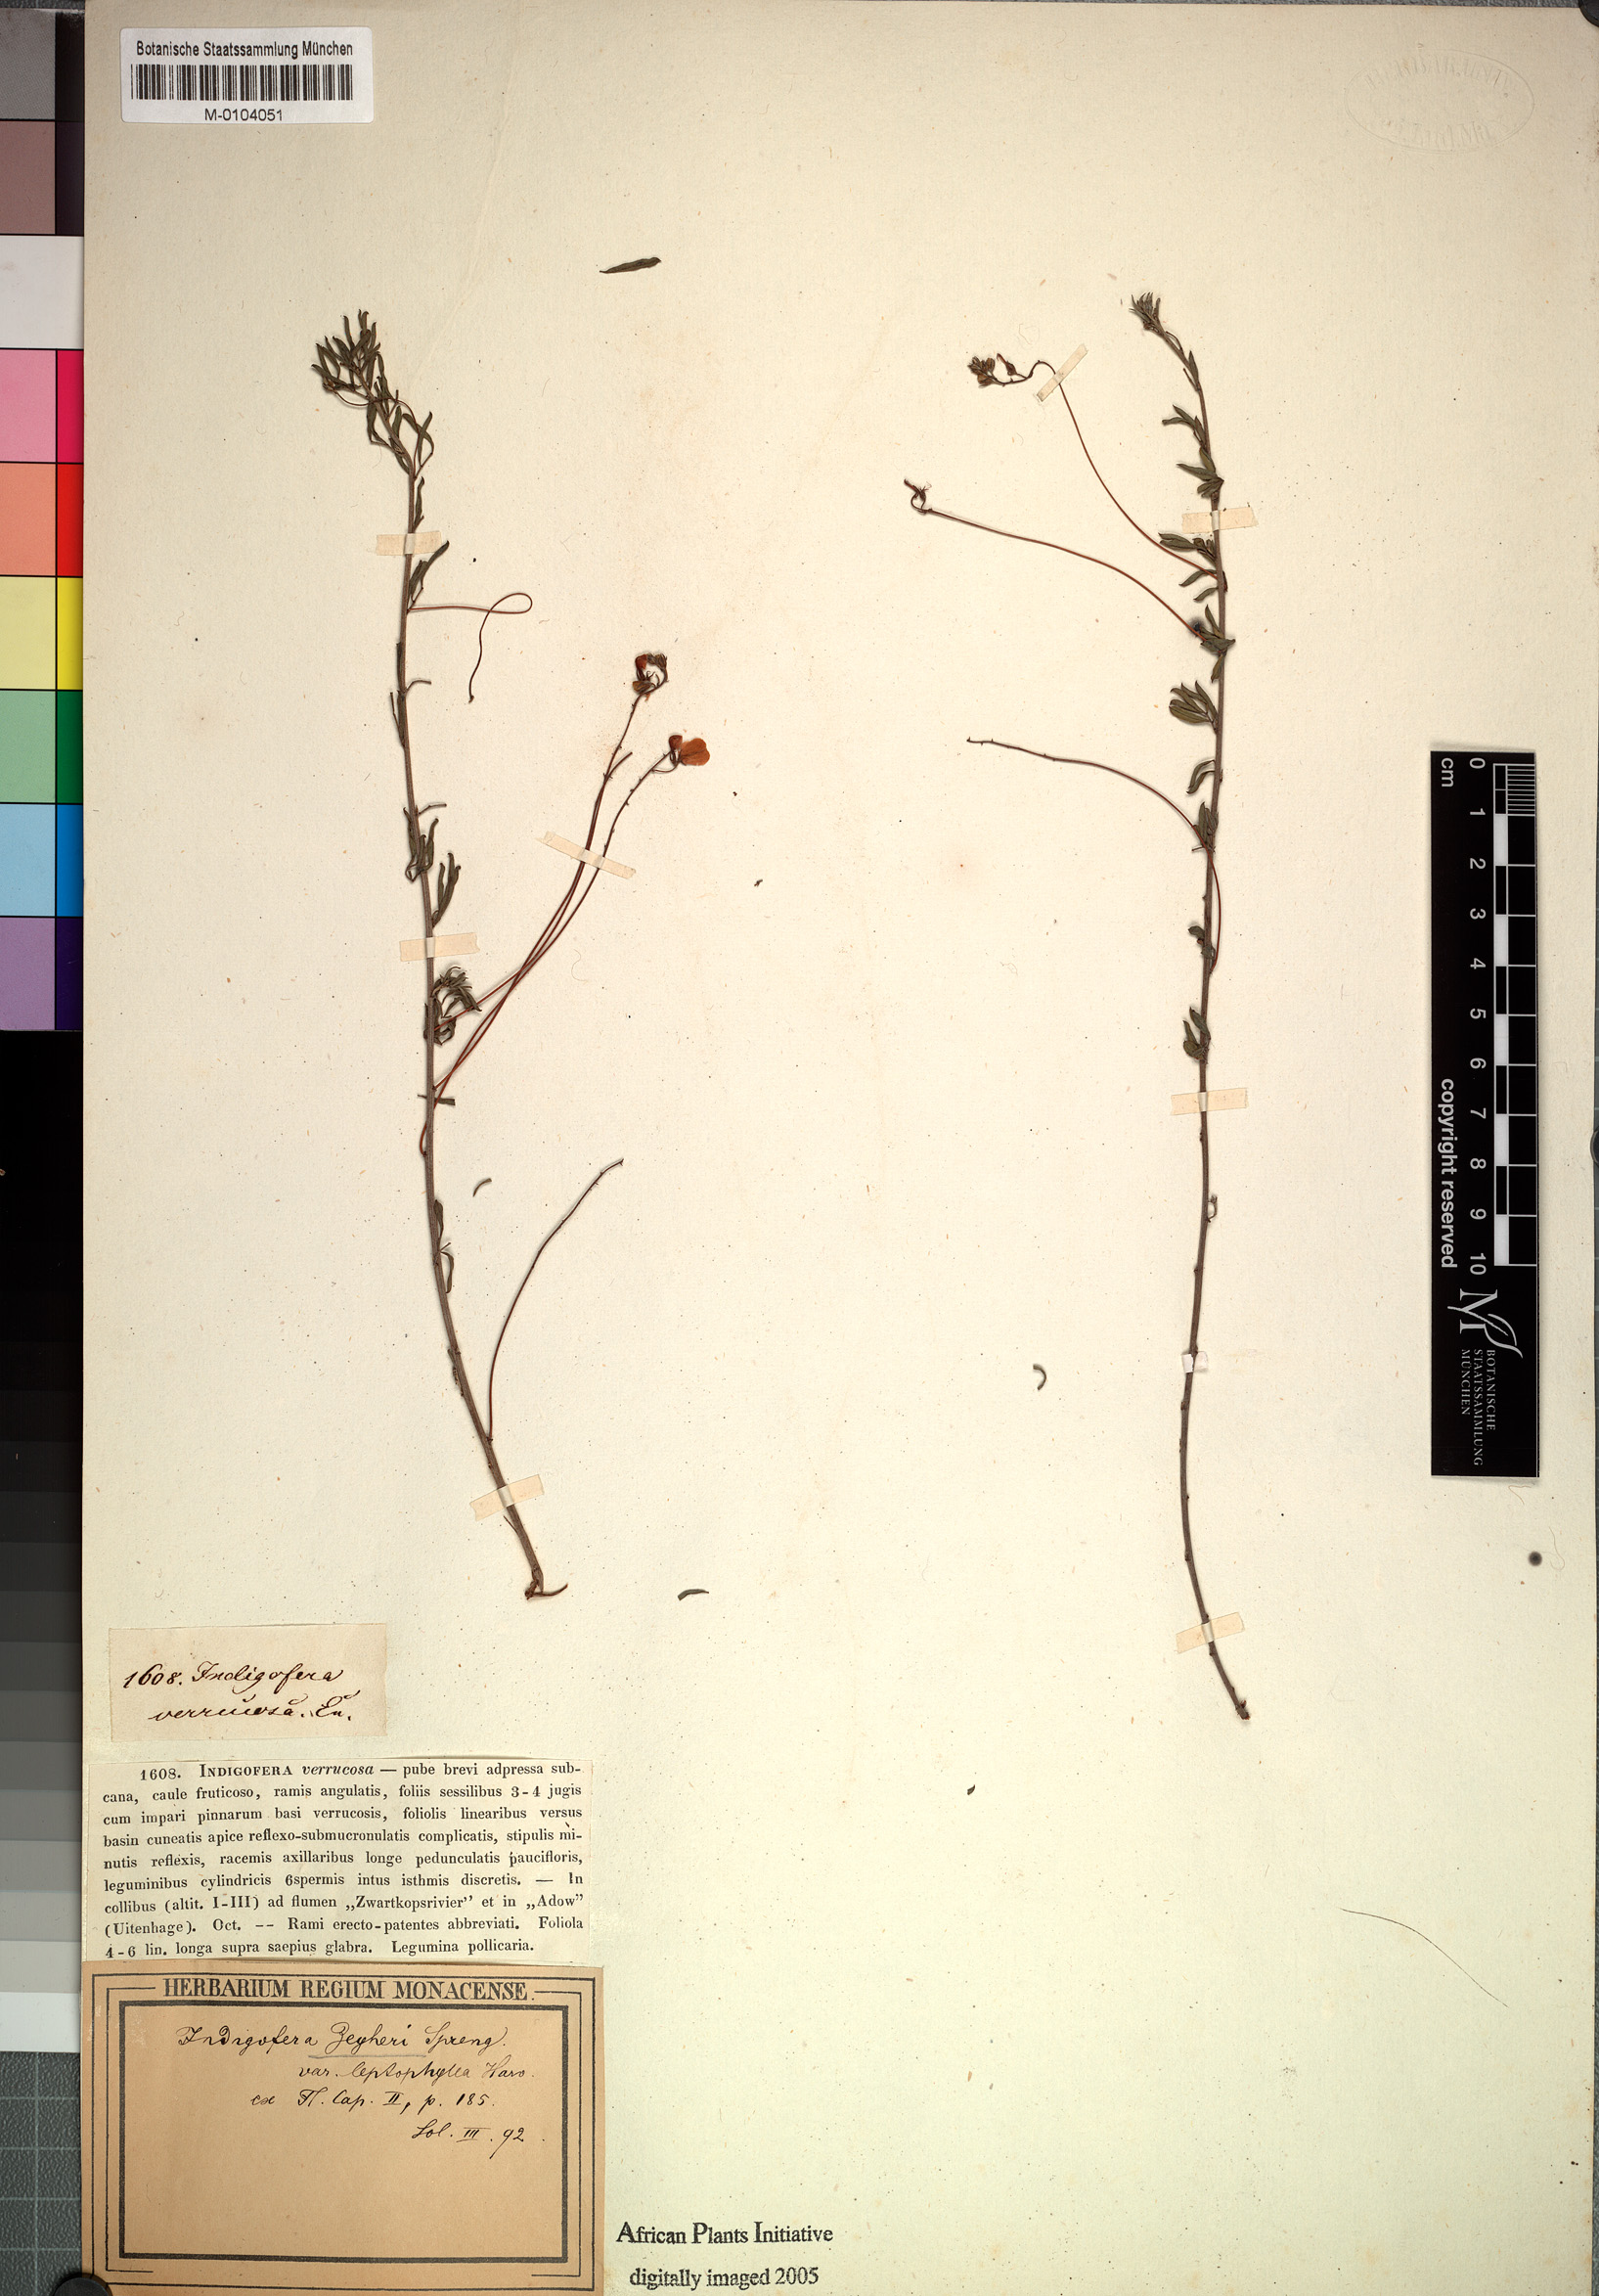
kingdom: Plantae
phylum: Tracheophyta
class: Magnoliopsida
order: Fabales
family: Fabaceae
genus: Indigofera
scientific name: Indigofera punctata
